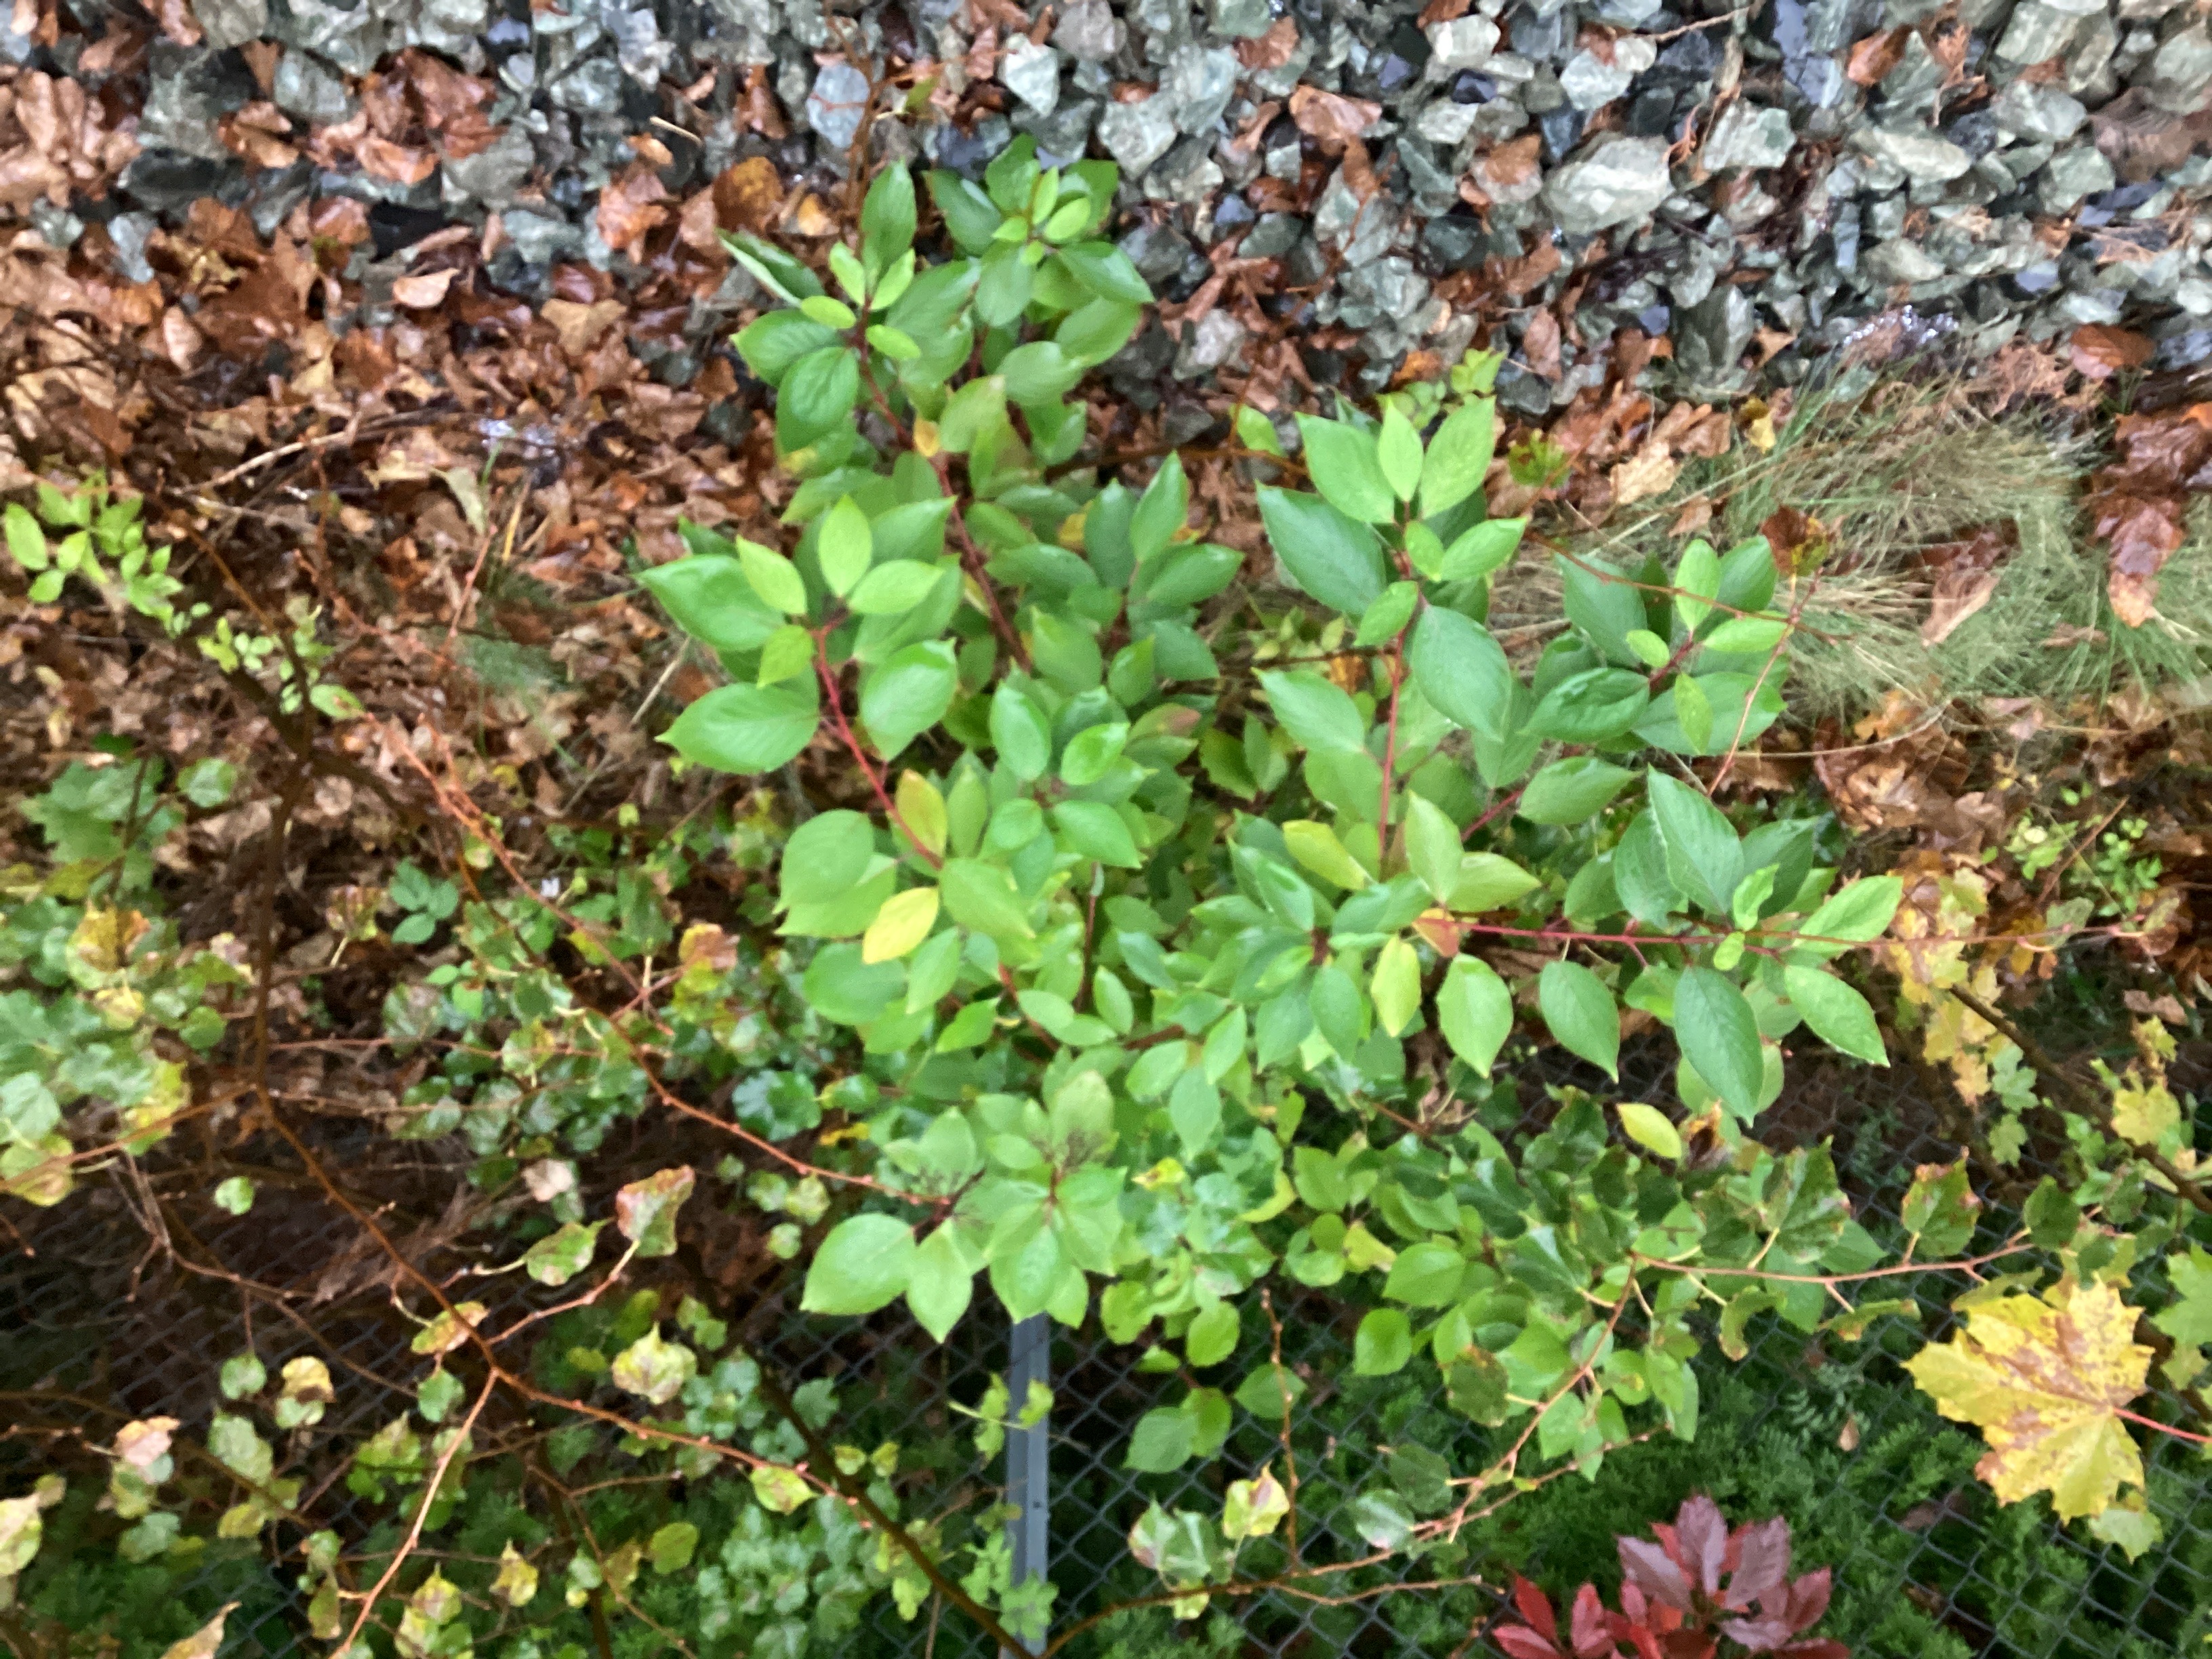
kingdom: Plantae
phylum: Tracheophyta
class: Magnoliopsida
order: Cornales
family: Cornaceae
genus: Cornus
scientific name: Cornus sericea
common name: alaskakornell
